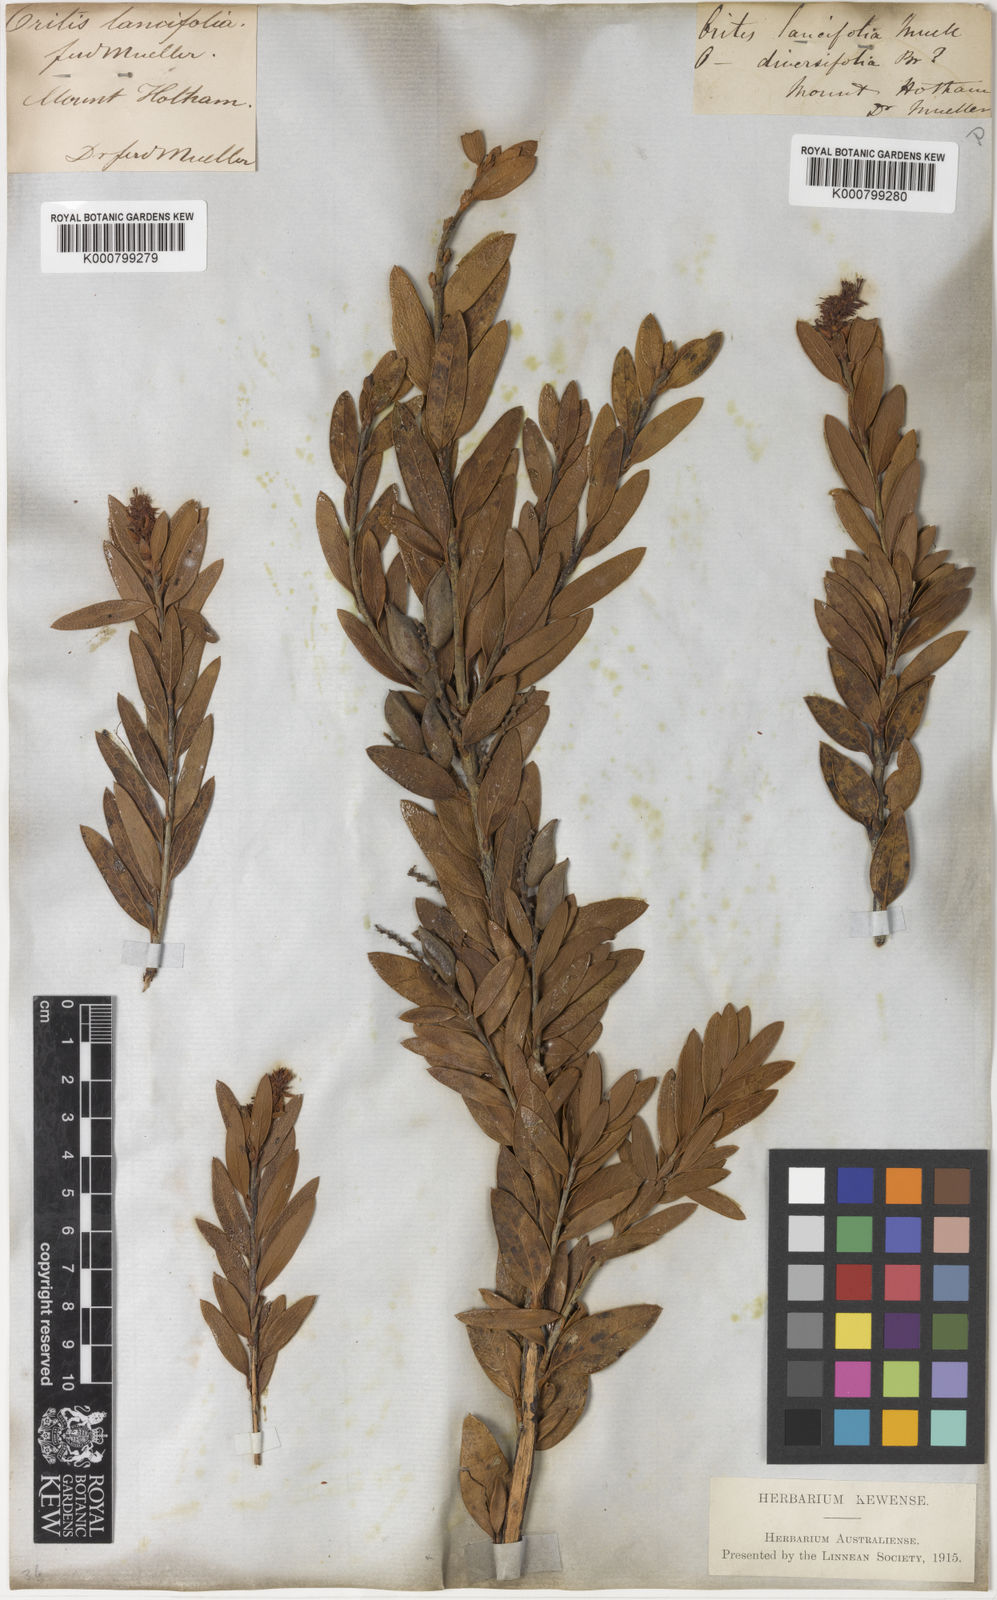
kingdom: Plantae
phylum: Tracheophyta
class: Magnoliopsida
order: Proteales
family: Proteaceae
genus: Orites
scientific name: Orites lancifolius
